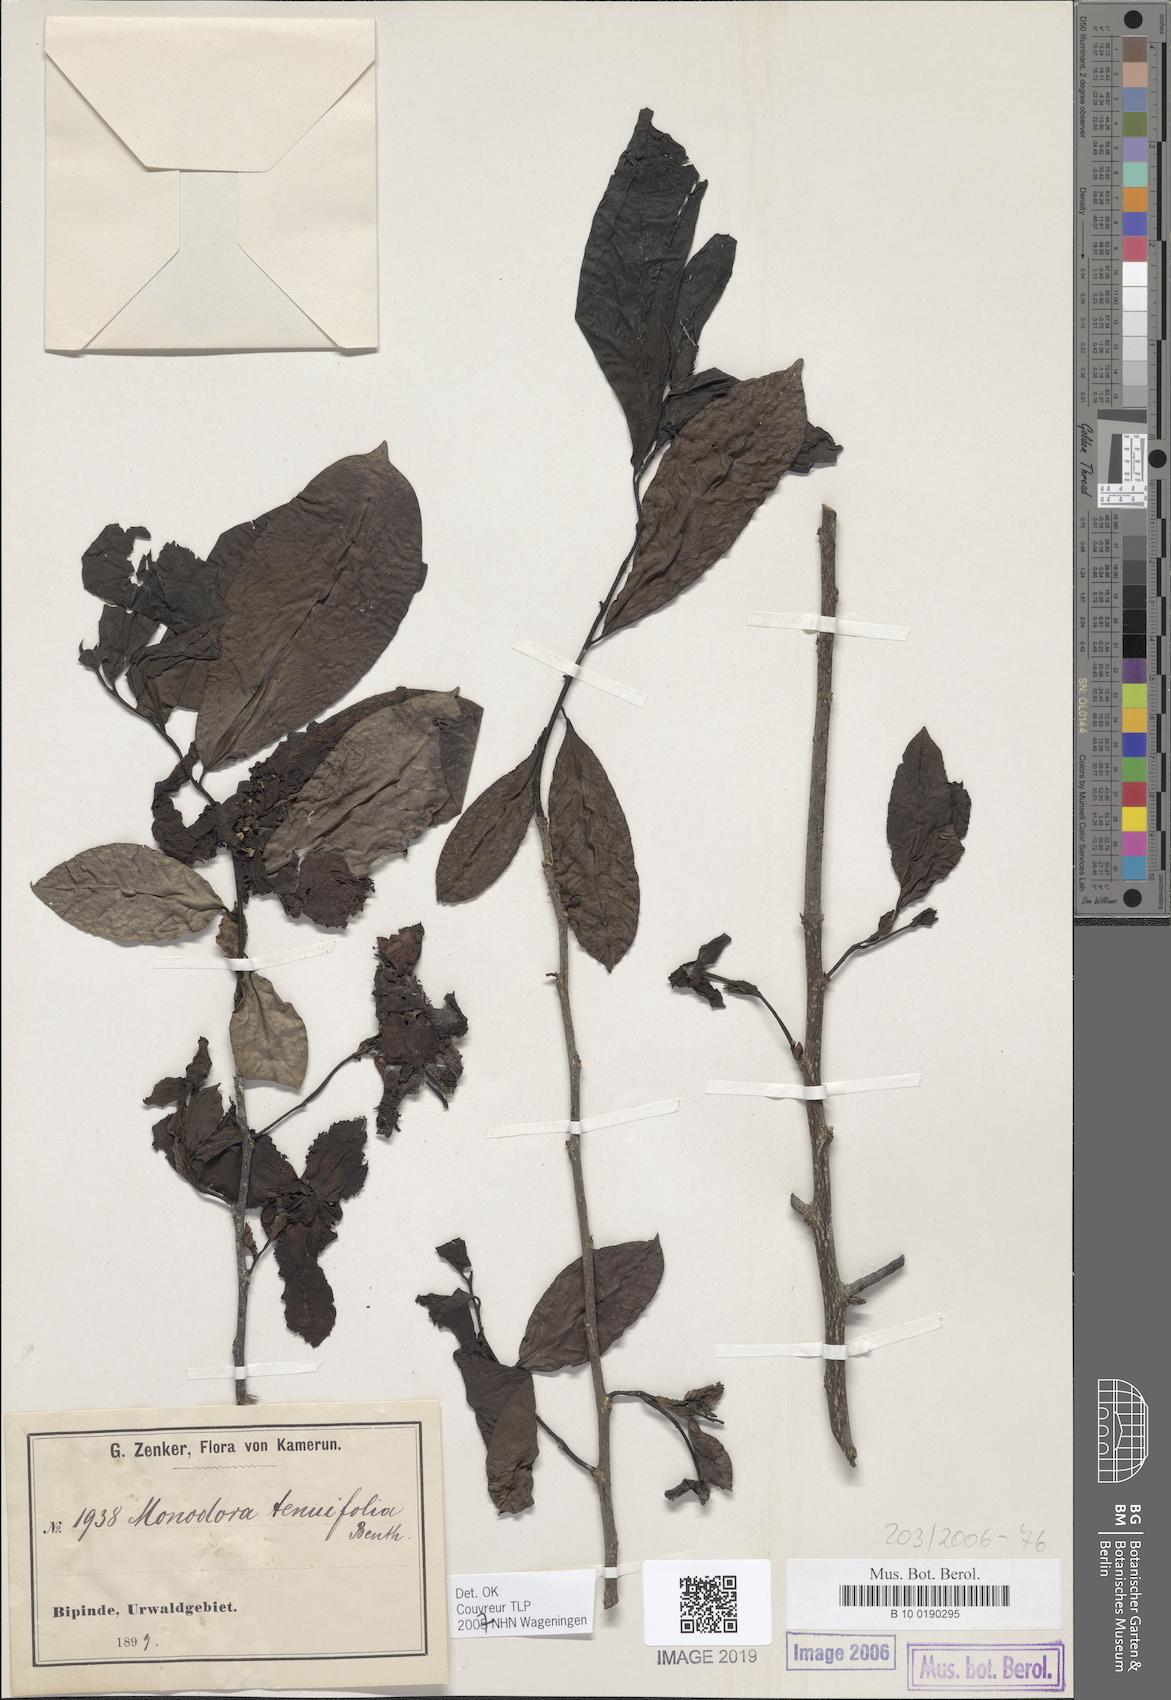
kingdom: Plantae
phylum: Tracheophyta
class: Magnoliopsida
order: Magnoliales
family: Annonaceae
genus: Monodora
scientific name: Monodora tenuifolia
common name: Orchidtree
